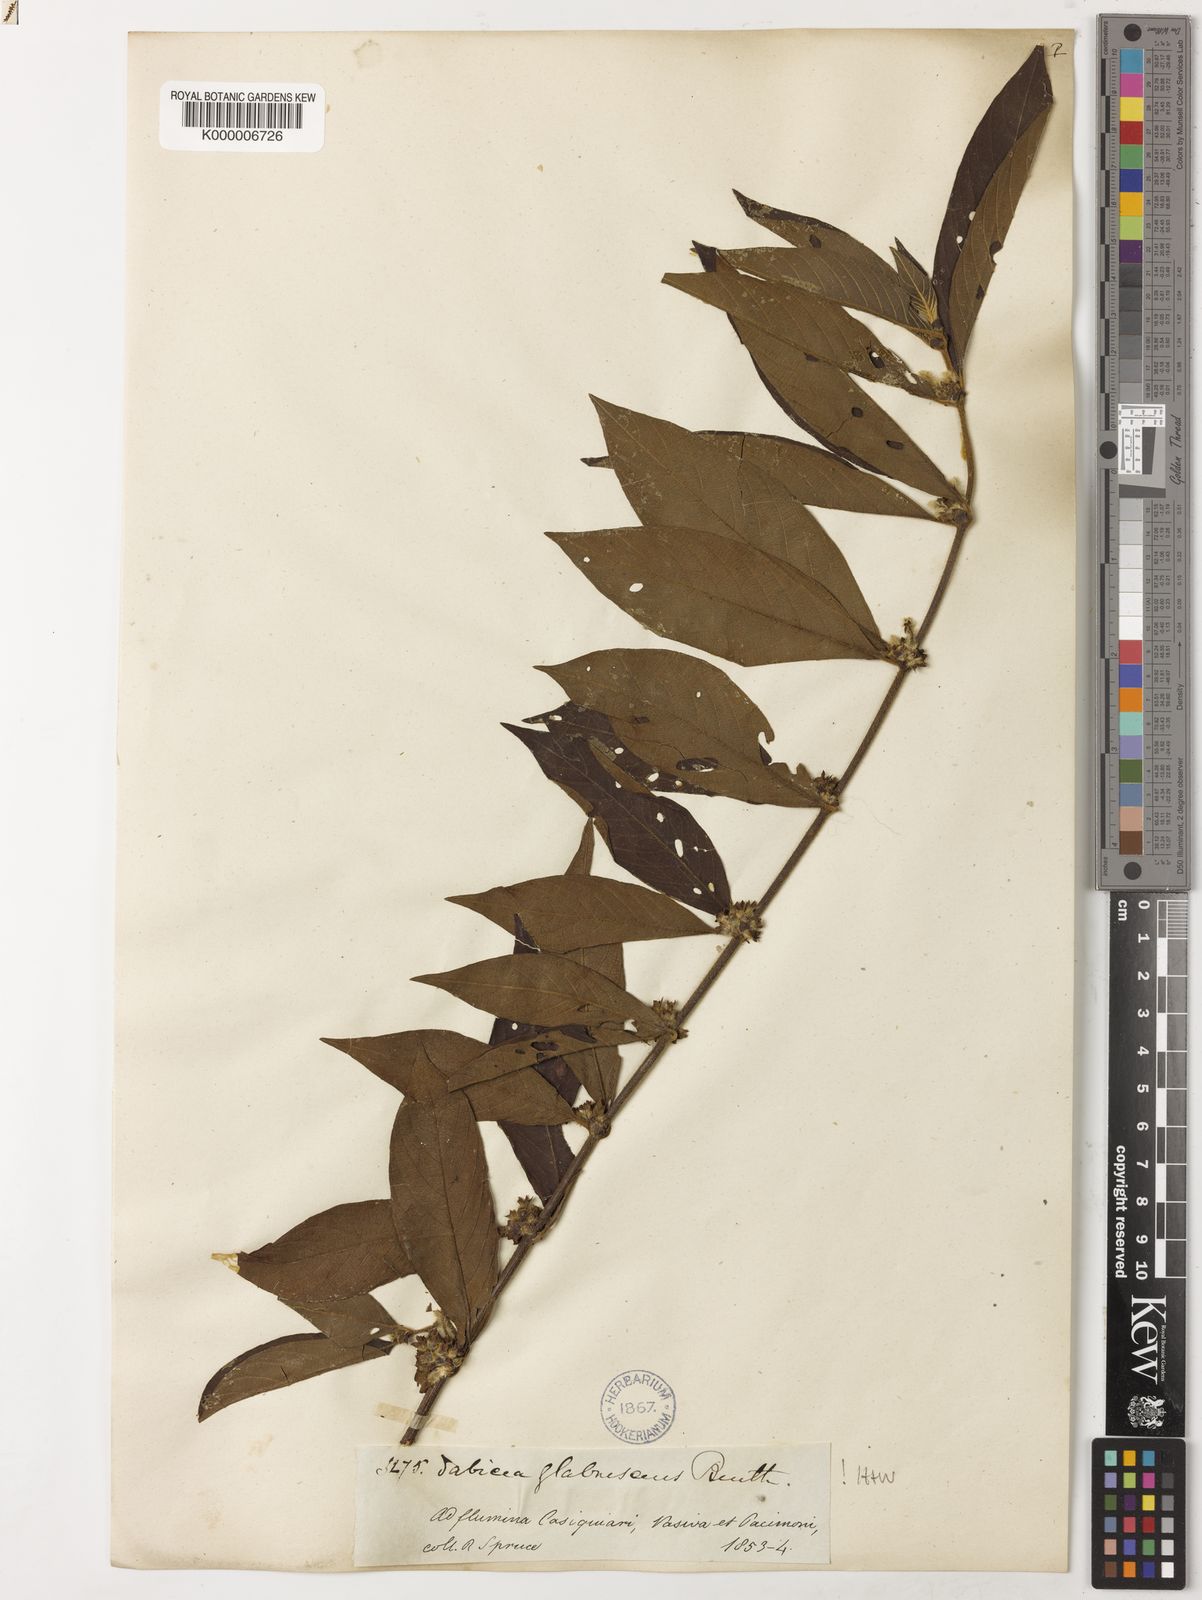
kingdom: Plantae
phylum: Tracheophyta
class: Magnoliopsida
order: Gentianales
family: Rubiaceae
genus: Sabicea
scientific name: Sabicea
